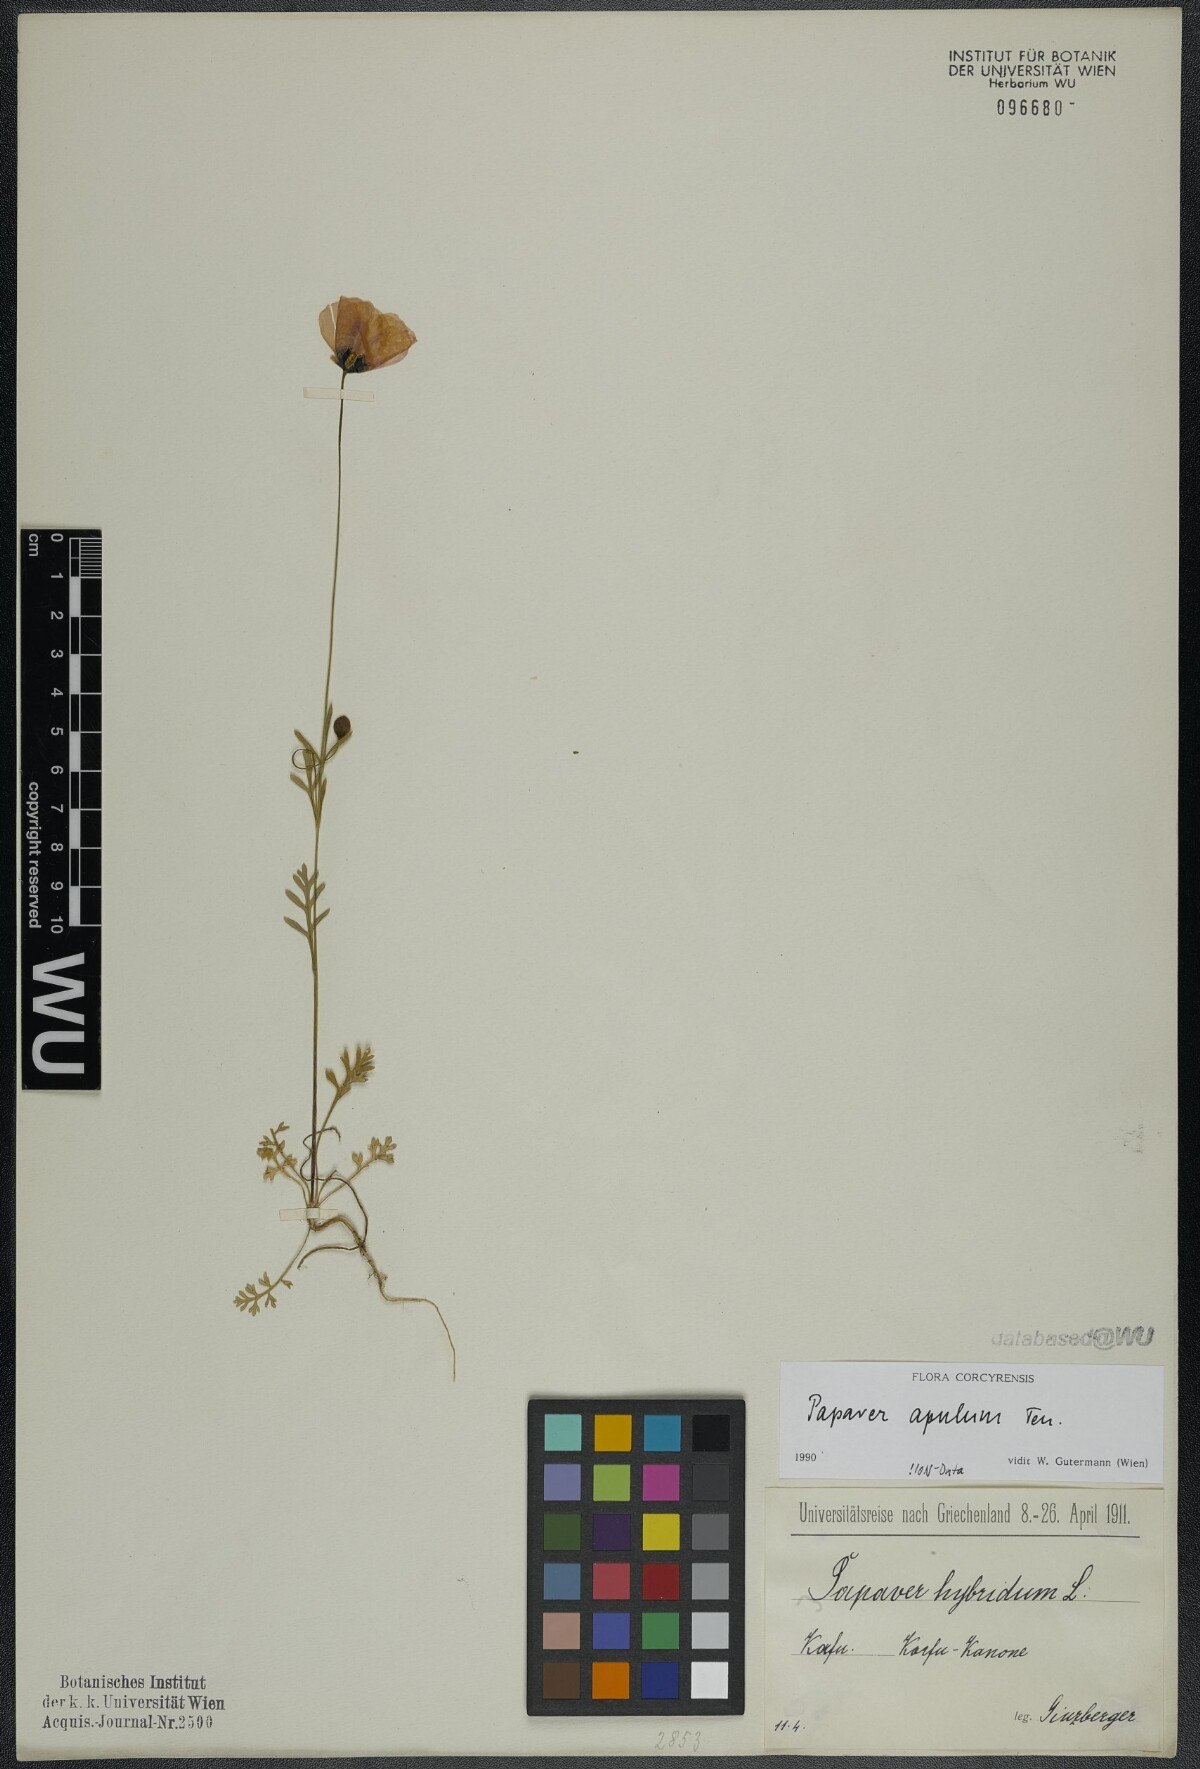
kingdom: Plantae
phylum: Tracheophyta
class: Magnoliopsida
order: Ranunculales
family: Papaveraceae
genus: Roemeria
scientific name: Roemeria apula
